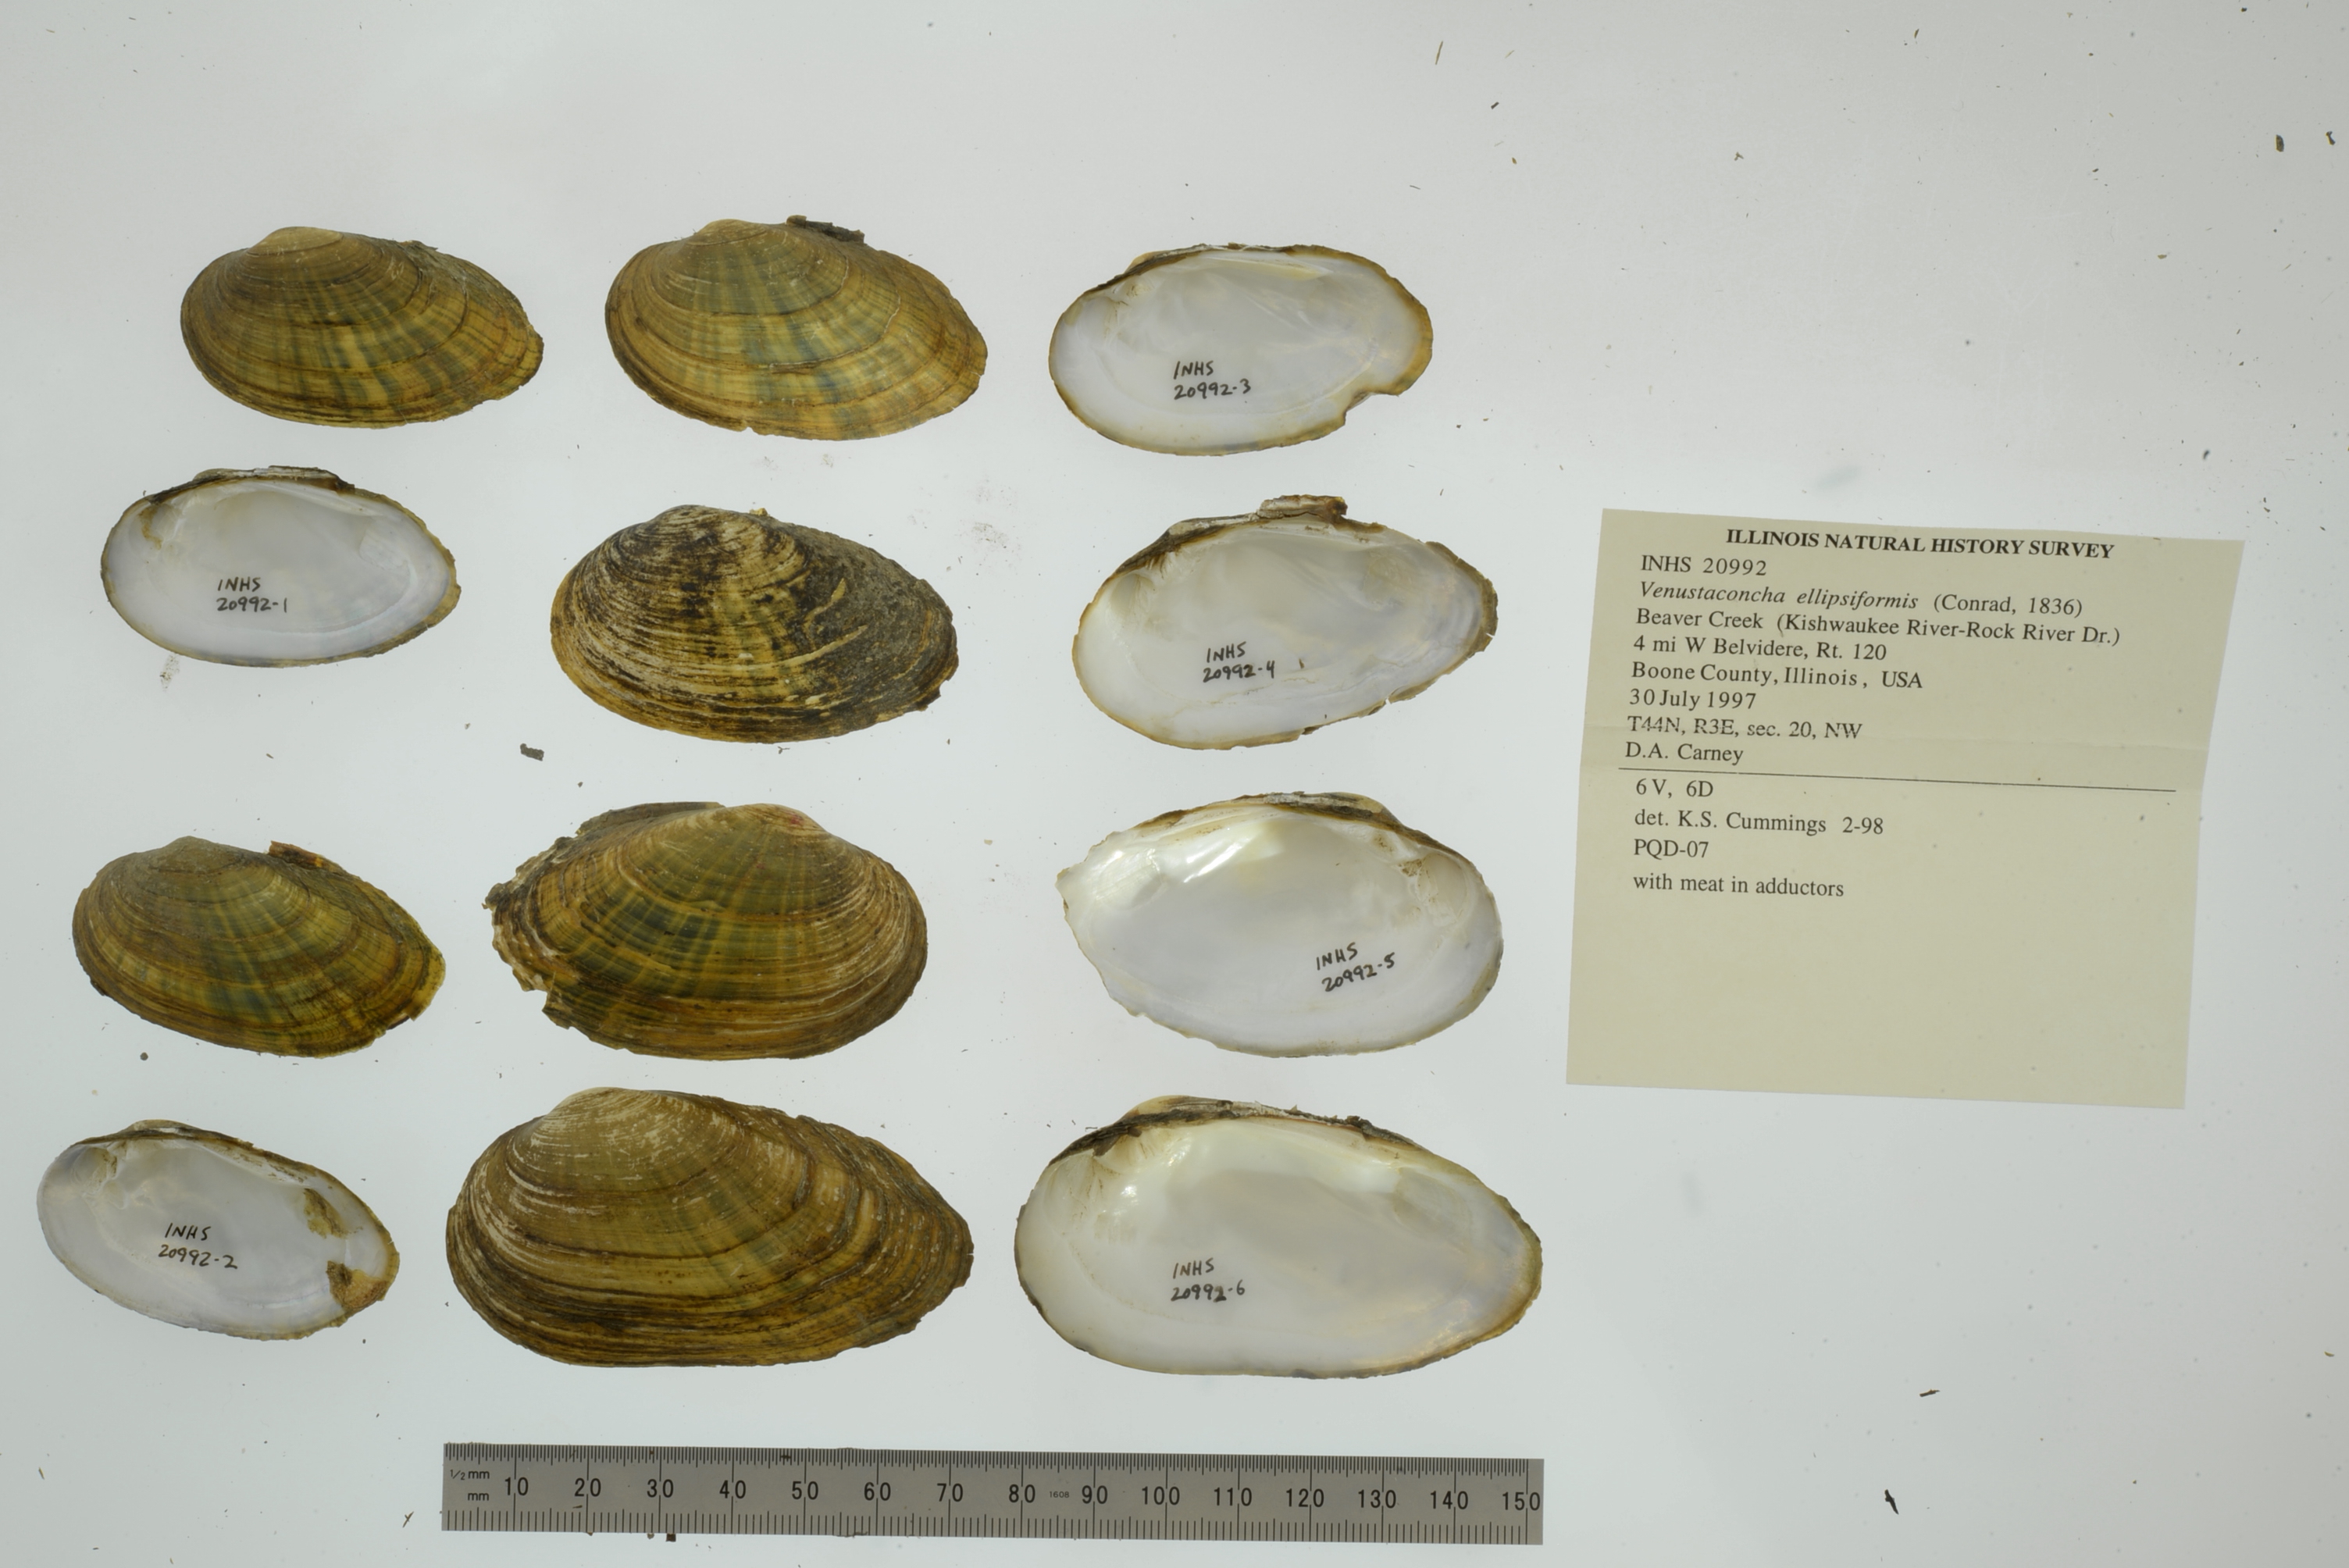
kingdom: Animalia
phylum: Mollusca
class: Bivalvia
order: Unionida
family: Unionidae
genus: Venustaconcha
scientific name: Venustaconcha ellipsiformis
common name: Ellipse
